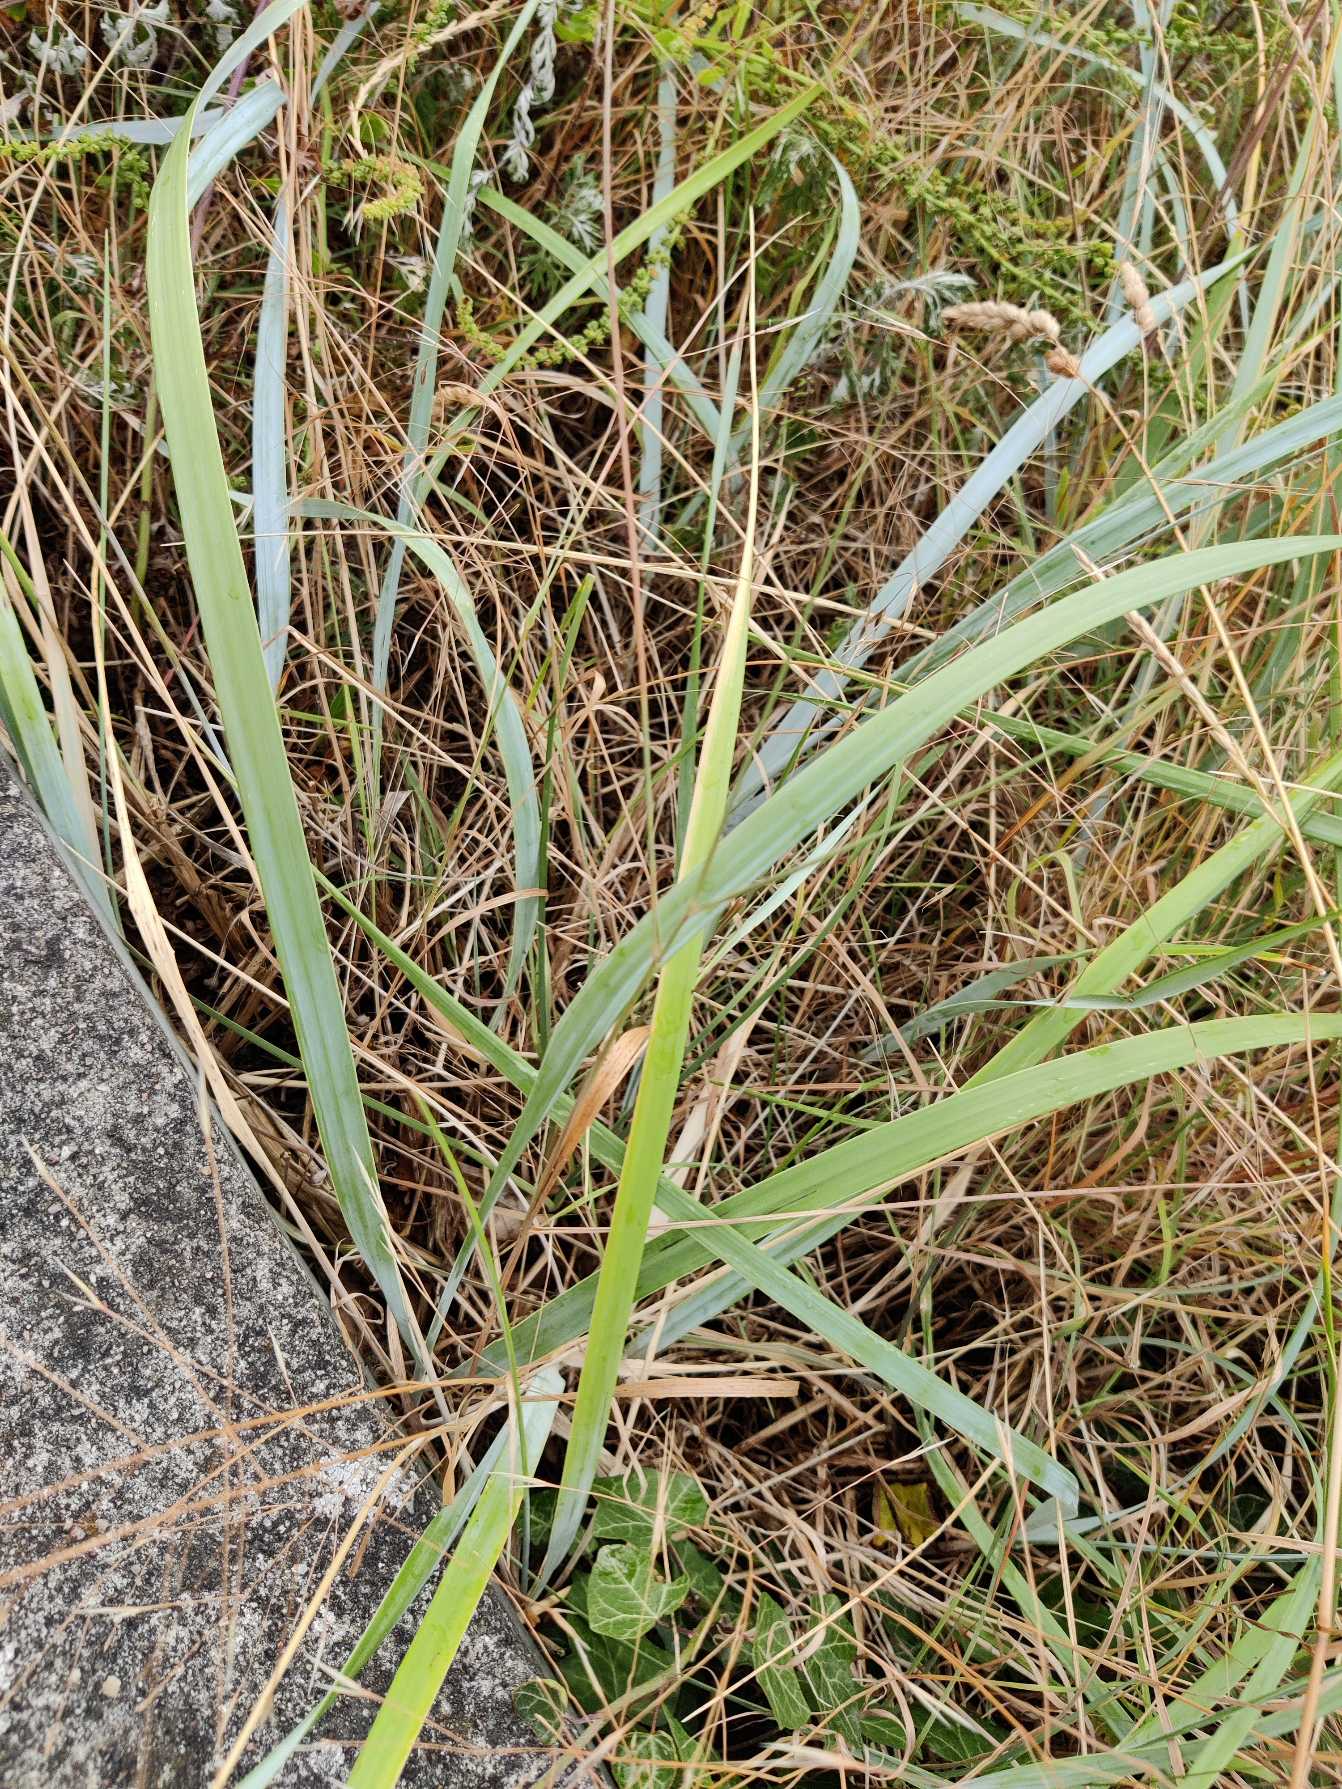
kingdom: Plantae
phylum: Tracheophyta
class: Liliopsida
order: Poales
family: Poaceae
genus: Leymus
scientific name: Leymus arenarius
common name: Marehalm
